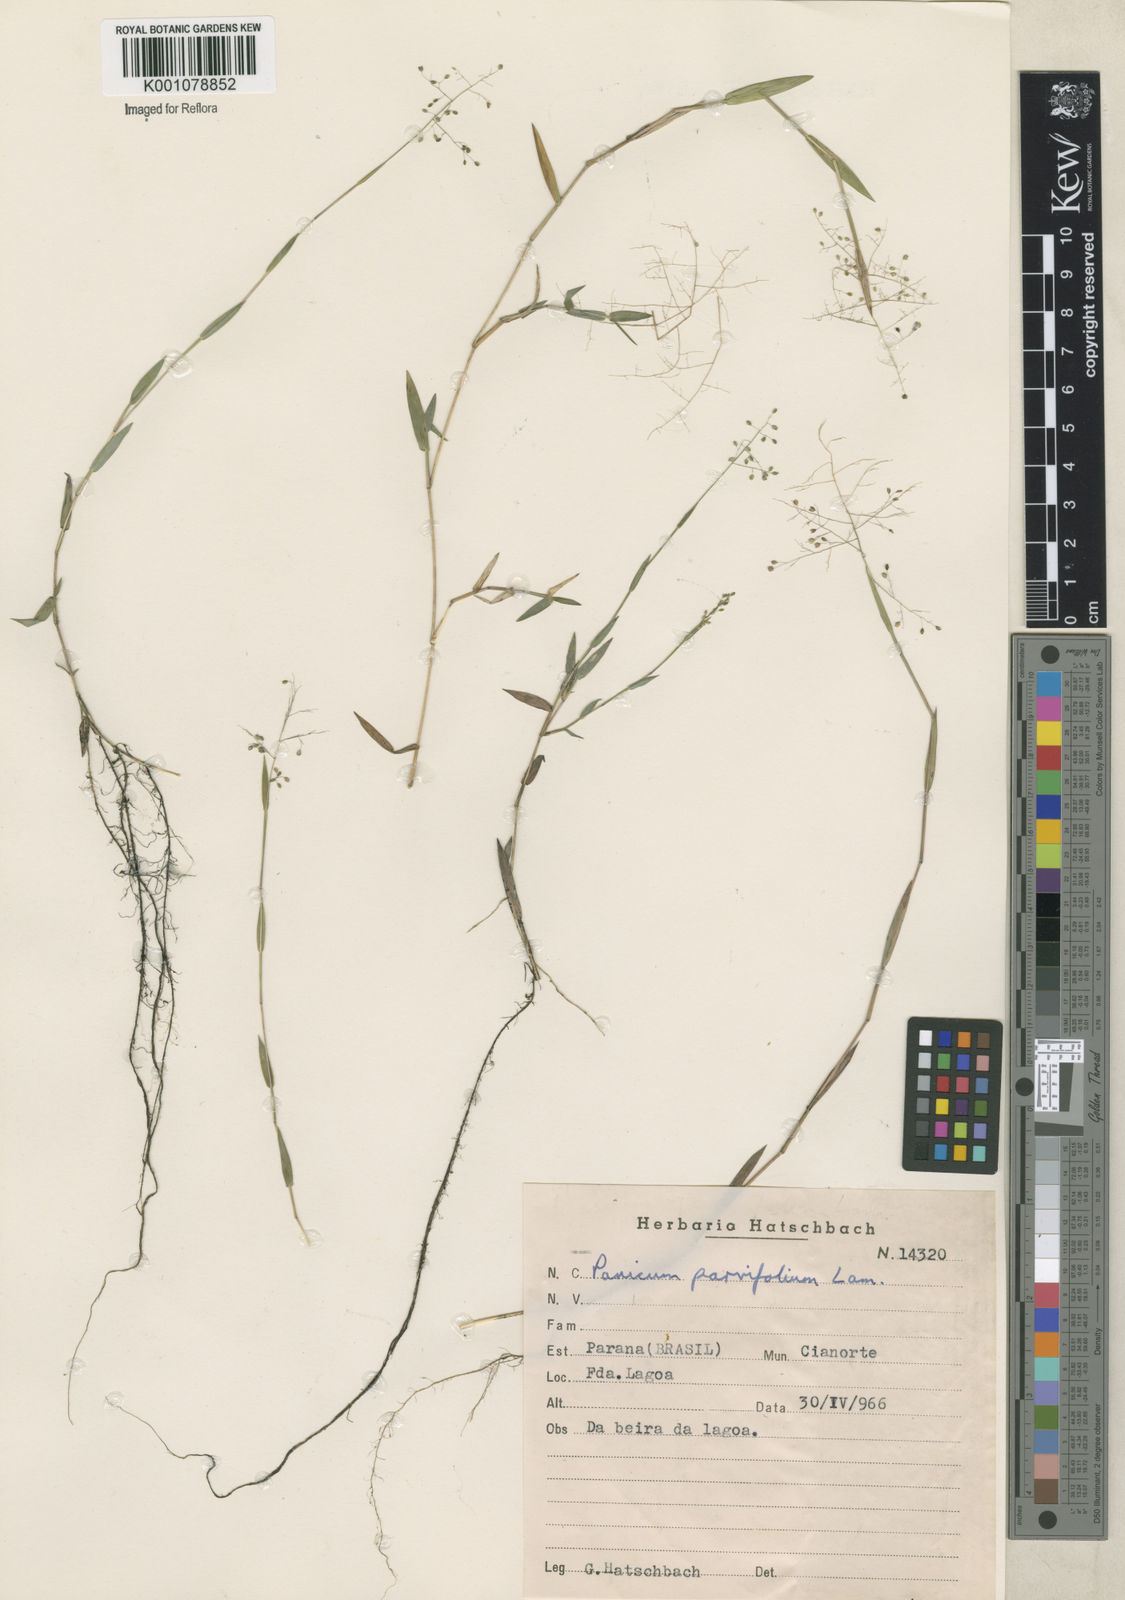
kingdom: Plantae
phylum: Tracheophyta
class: Liliopsida
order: Poales
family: Poaceae
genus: Trichanthecium
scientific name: Trichanthecium parvifolium
